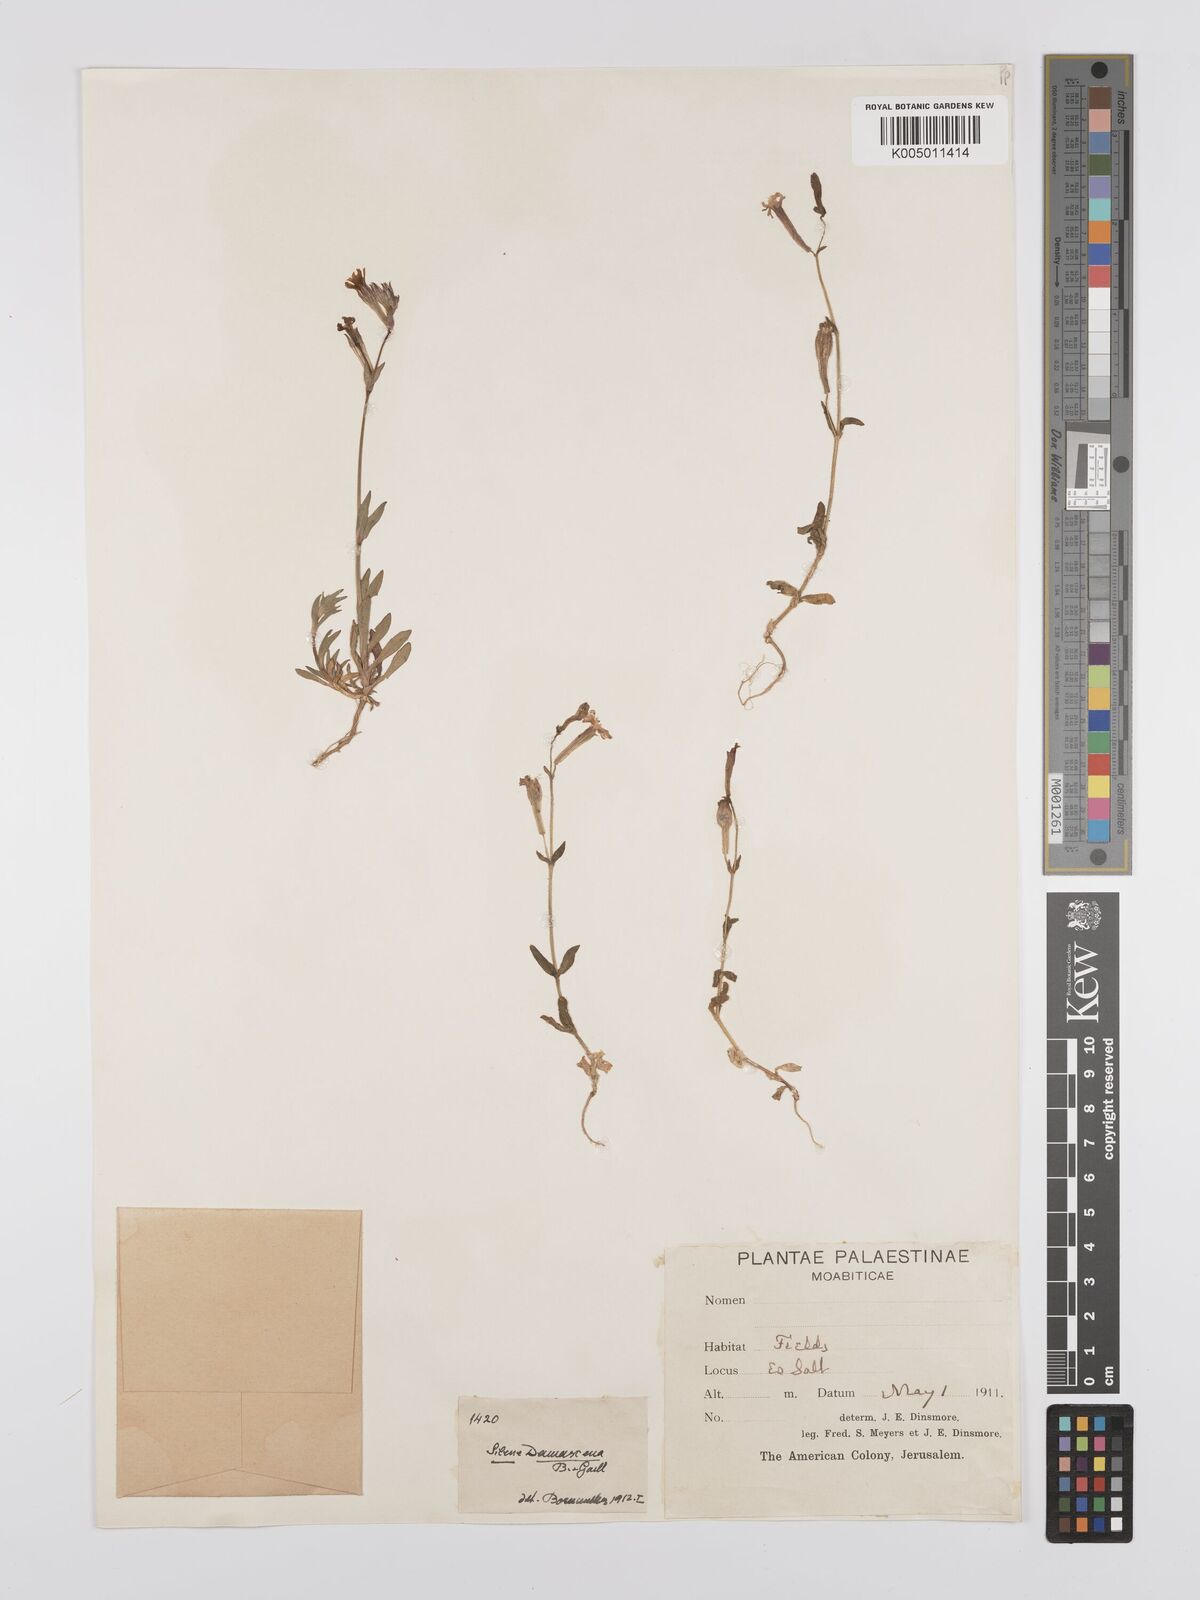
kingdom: Plantae
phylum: Tracheophyta
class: Magnoliopsida
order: Caryophyllales
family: Caryophyllaceae
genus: Silene
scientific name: Silene damascena
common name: Damascus catchfly
